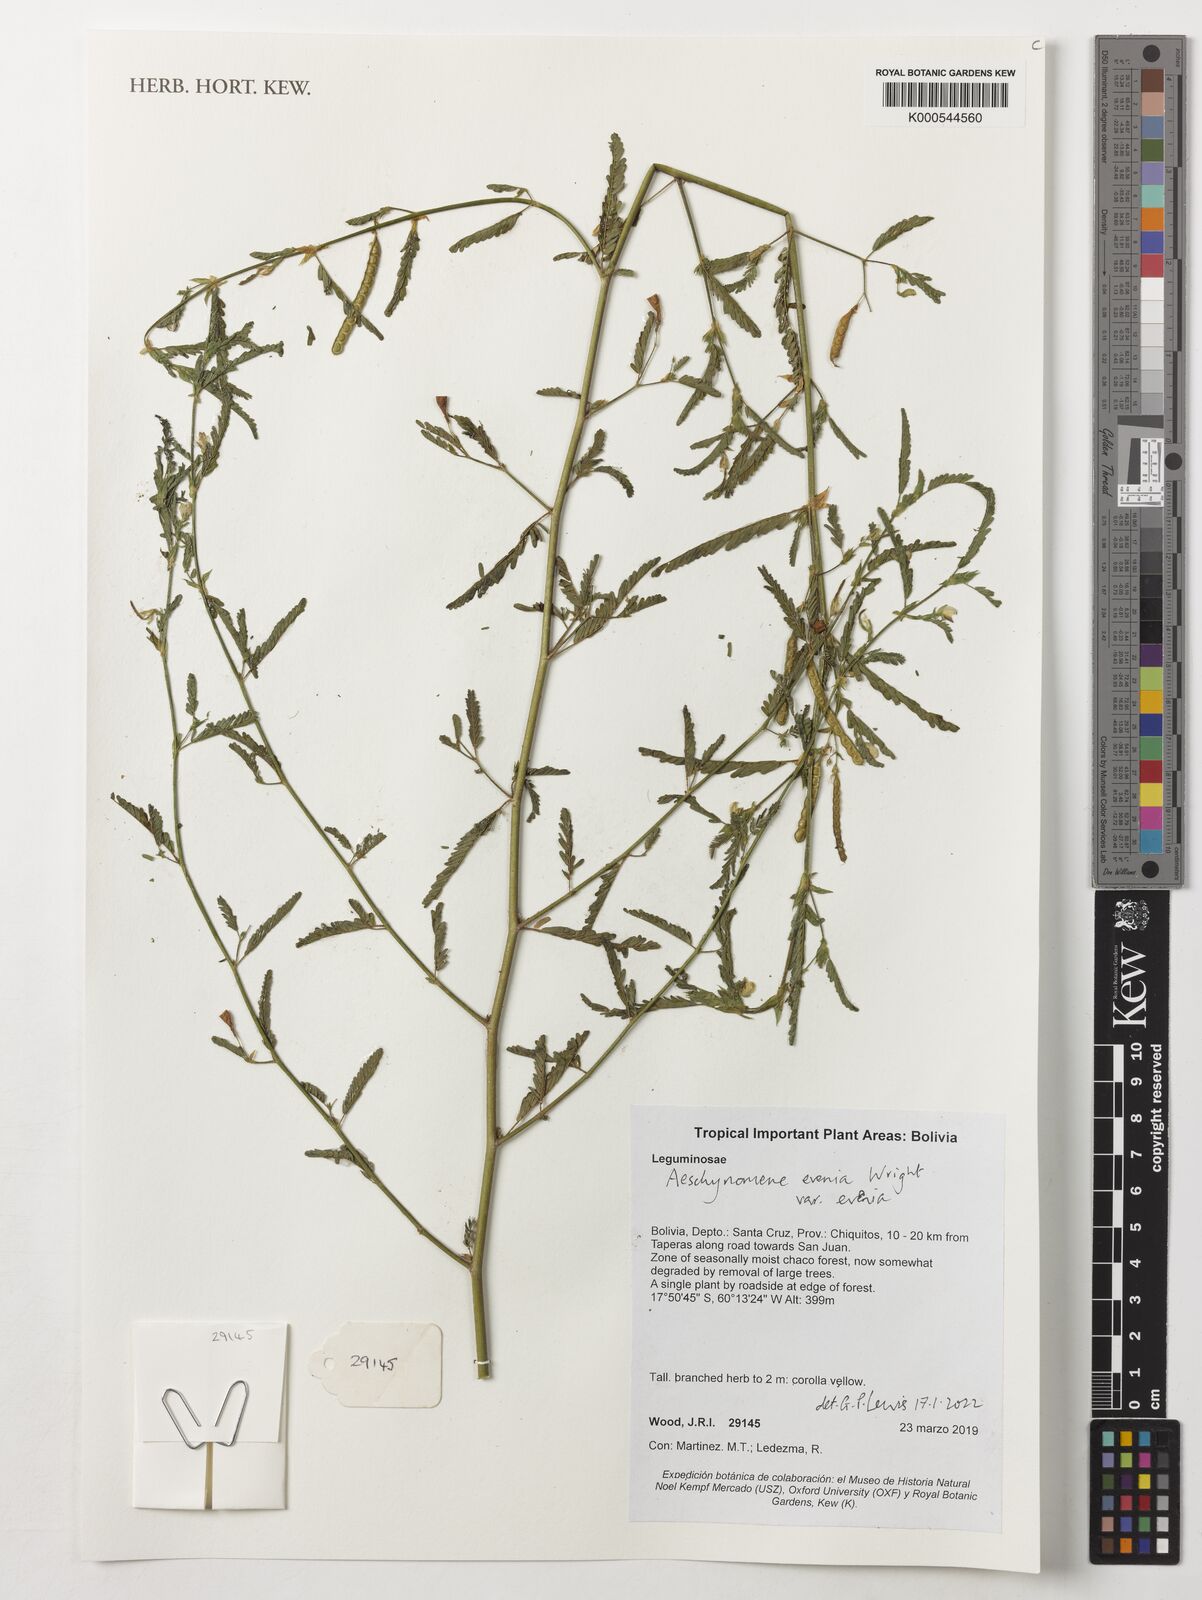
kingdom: Plantae
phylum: Tracheophyta
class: Magnoliopsida
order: Fabales
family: Fabaceae
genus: Aeschynomene
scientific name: Aeschynomene evenia
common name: Shrubby jointvetch
